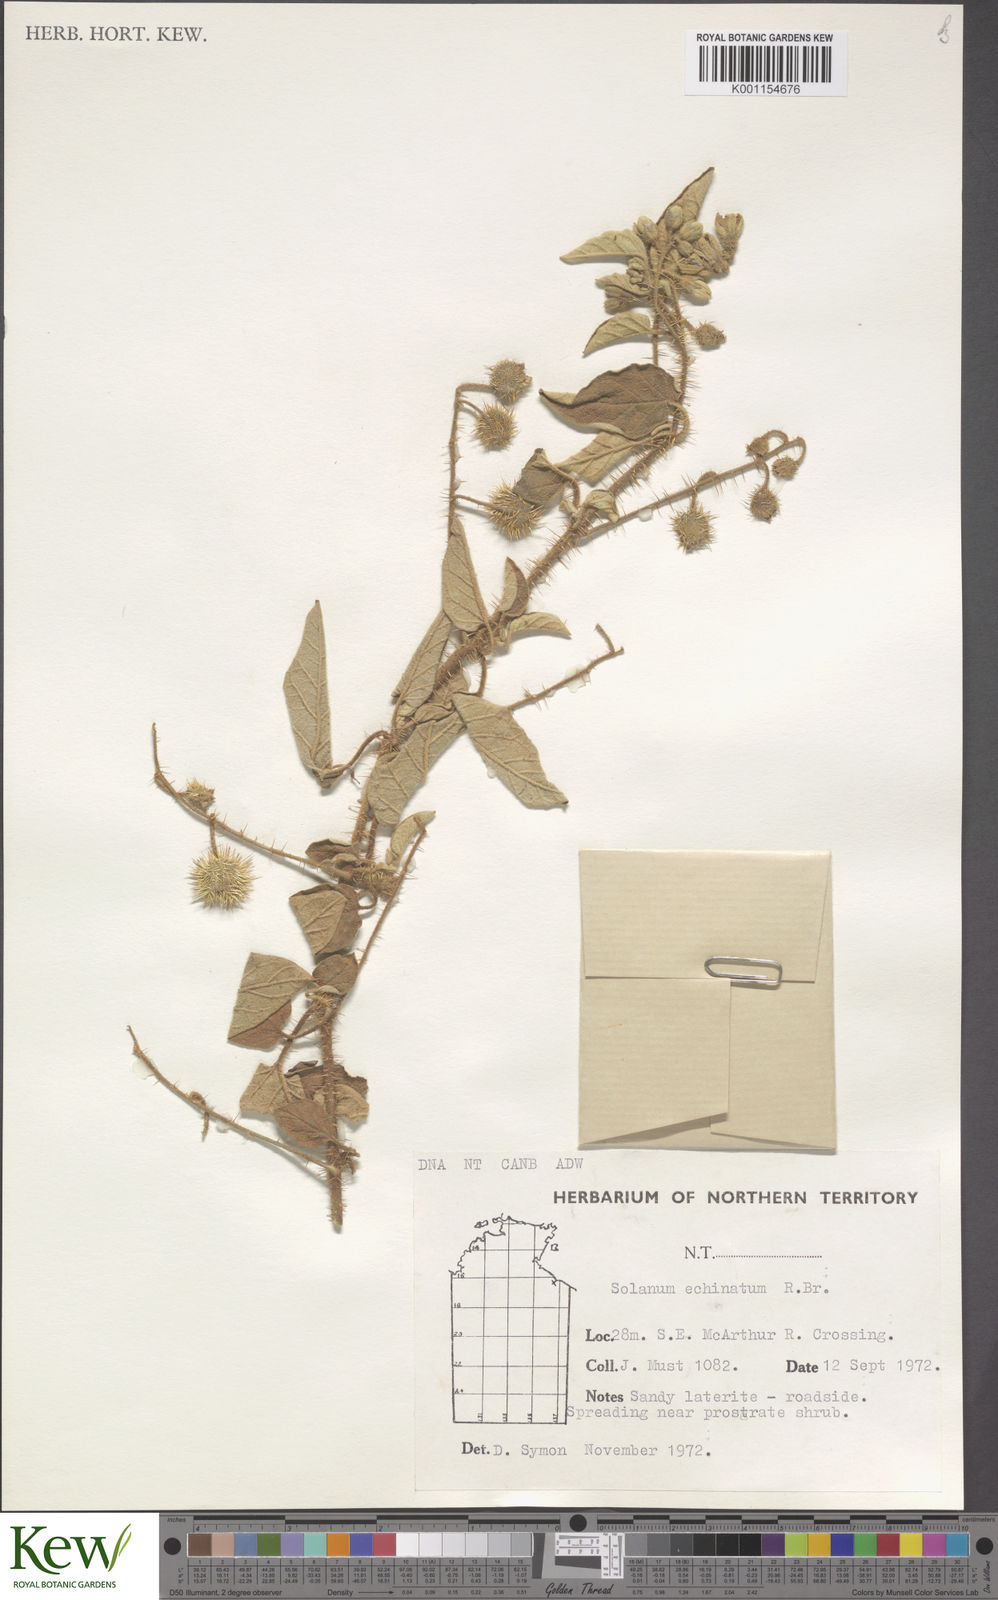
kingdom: Plantae
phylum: Tracheophyta
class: Magnoliopsida
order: Solanales
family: Solanaceae
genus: Solanum
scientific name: Solanum echinatum
